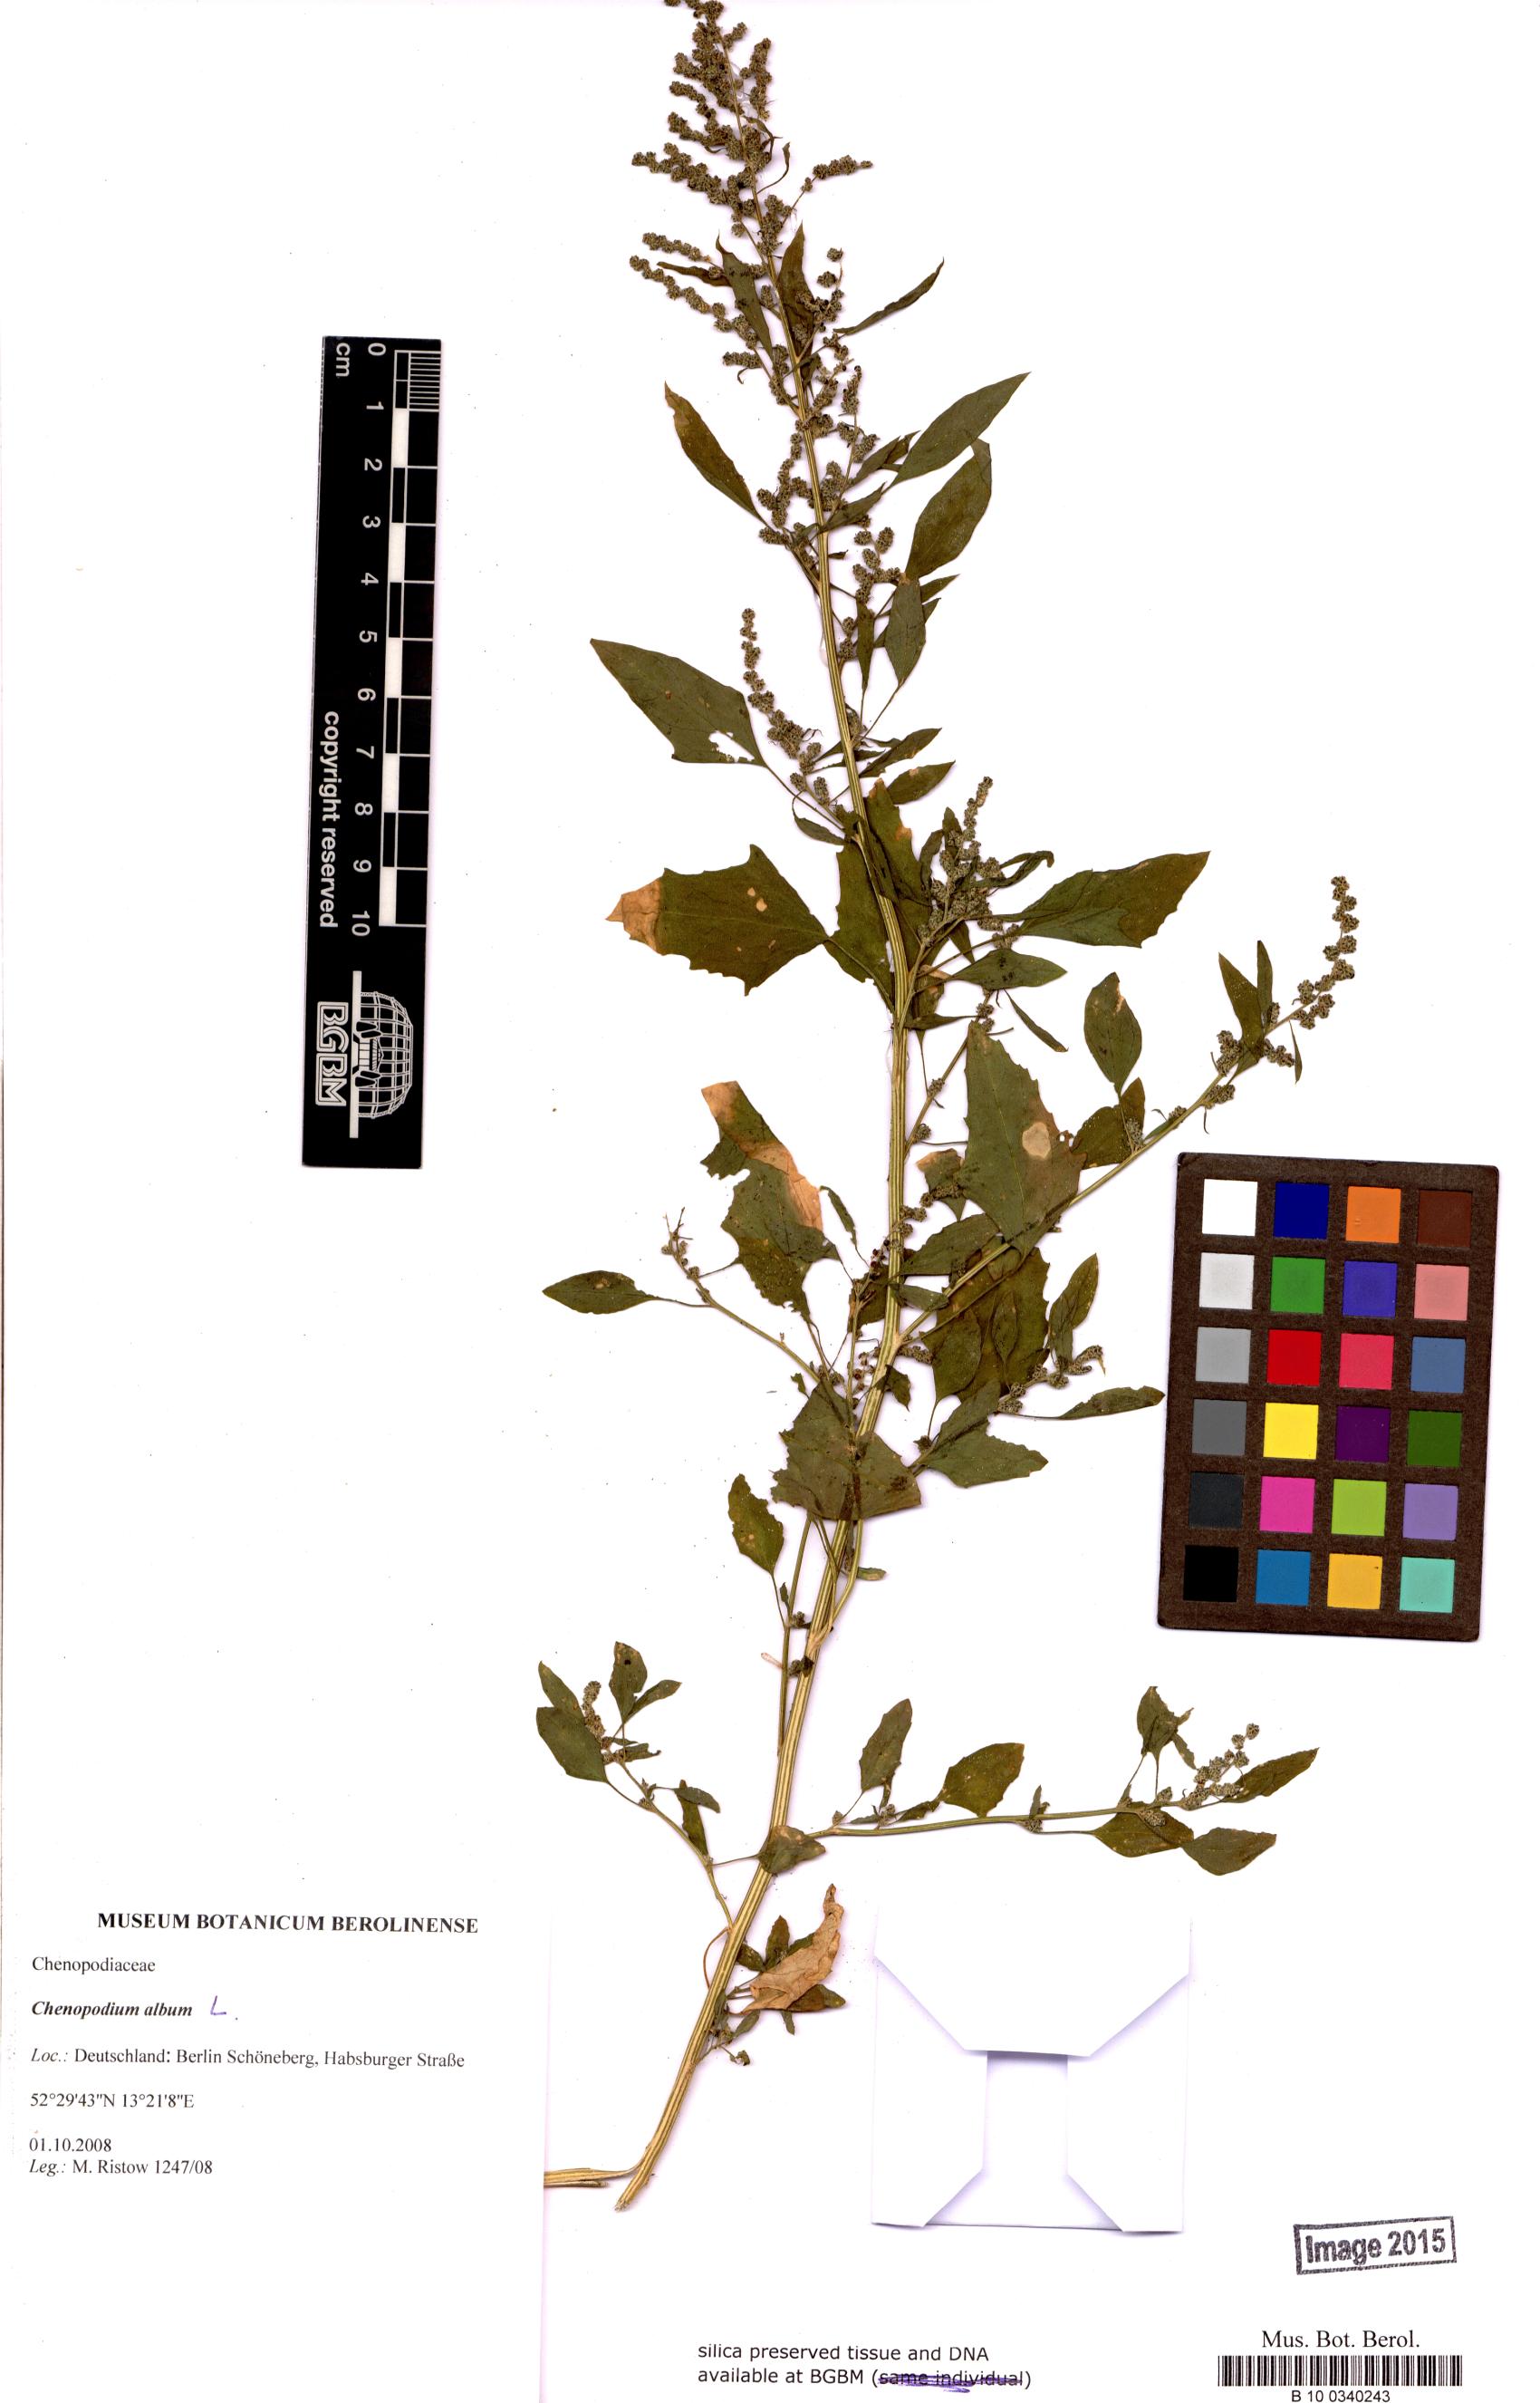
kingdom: Plantae
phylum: Tracheophyta
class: Magnoliopsida
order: Caryophyllales
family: Amaranthaceae
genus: Chenopodium
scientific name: Chenopodium album
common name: Fat-hen
